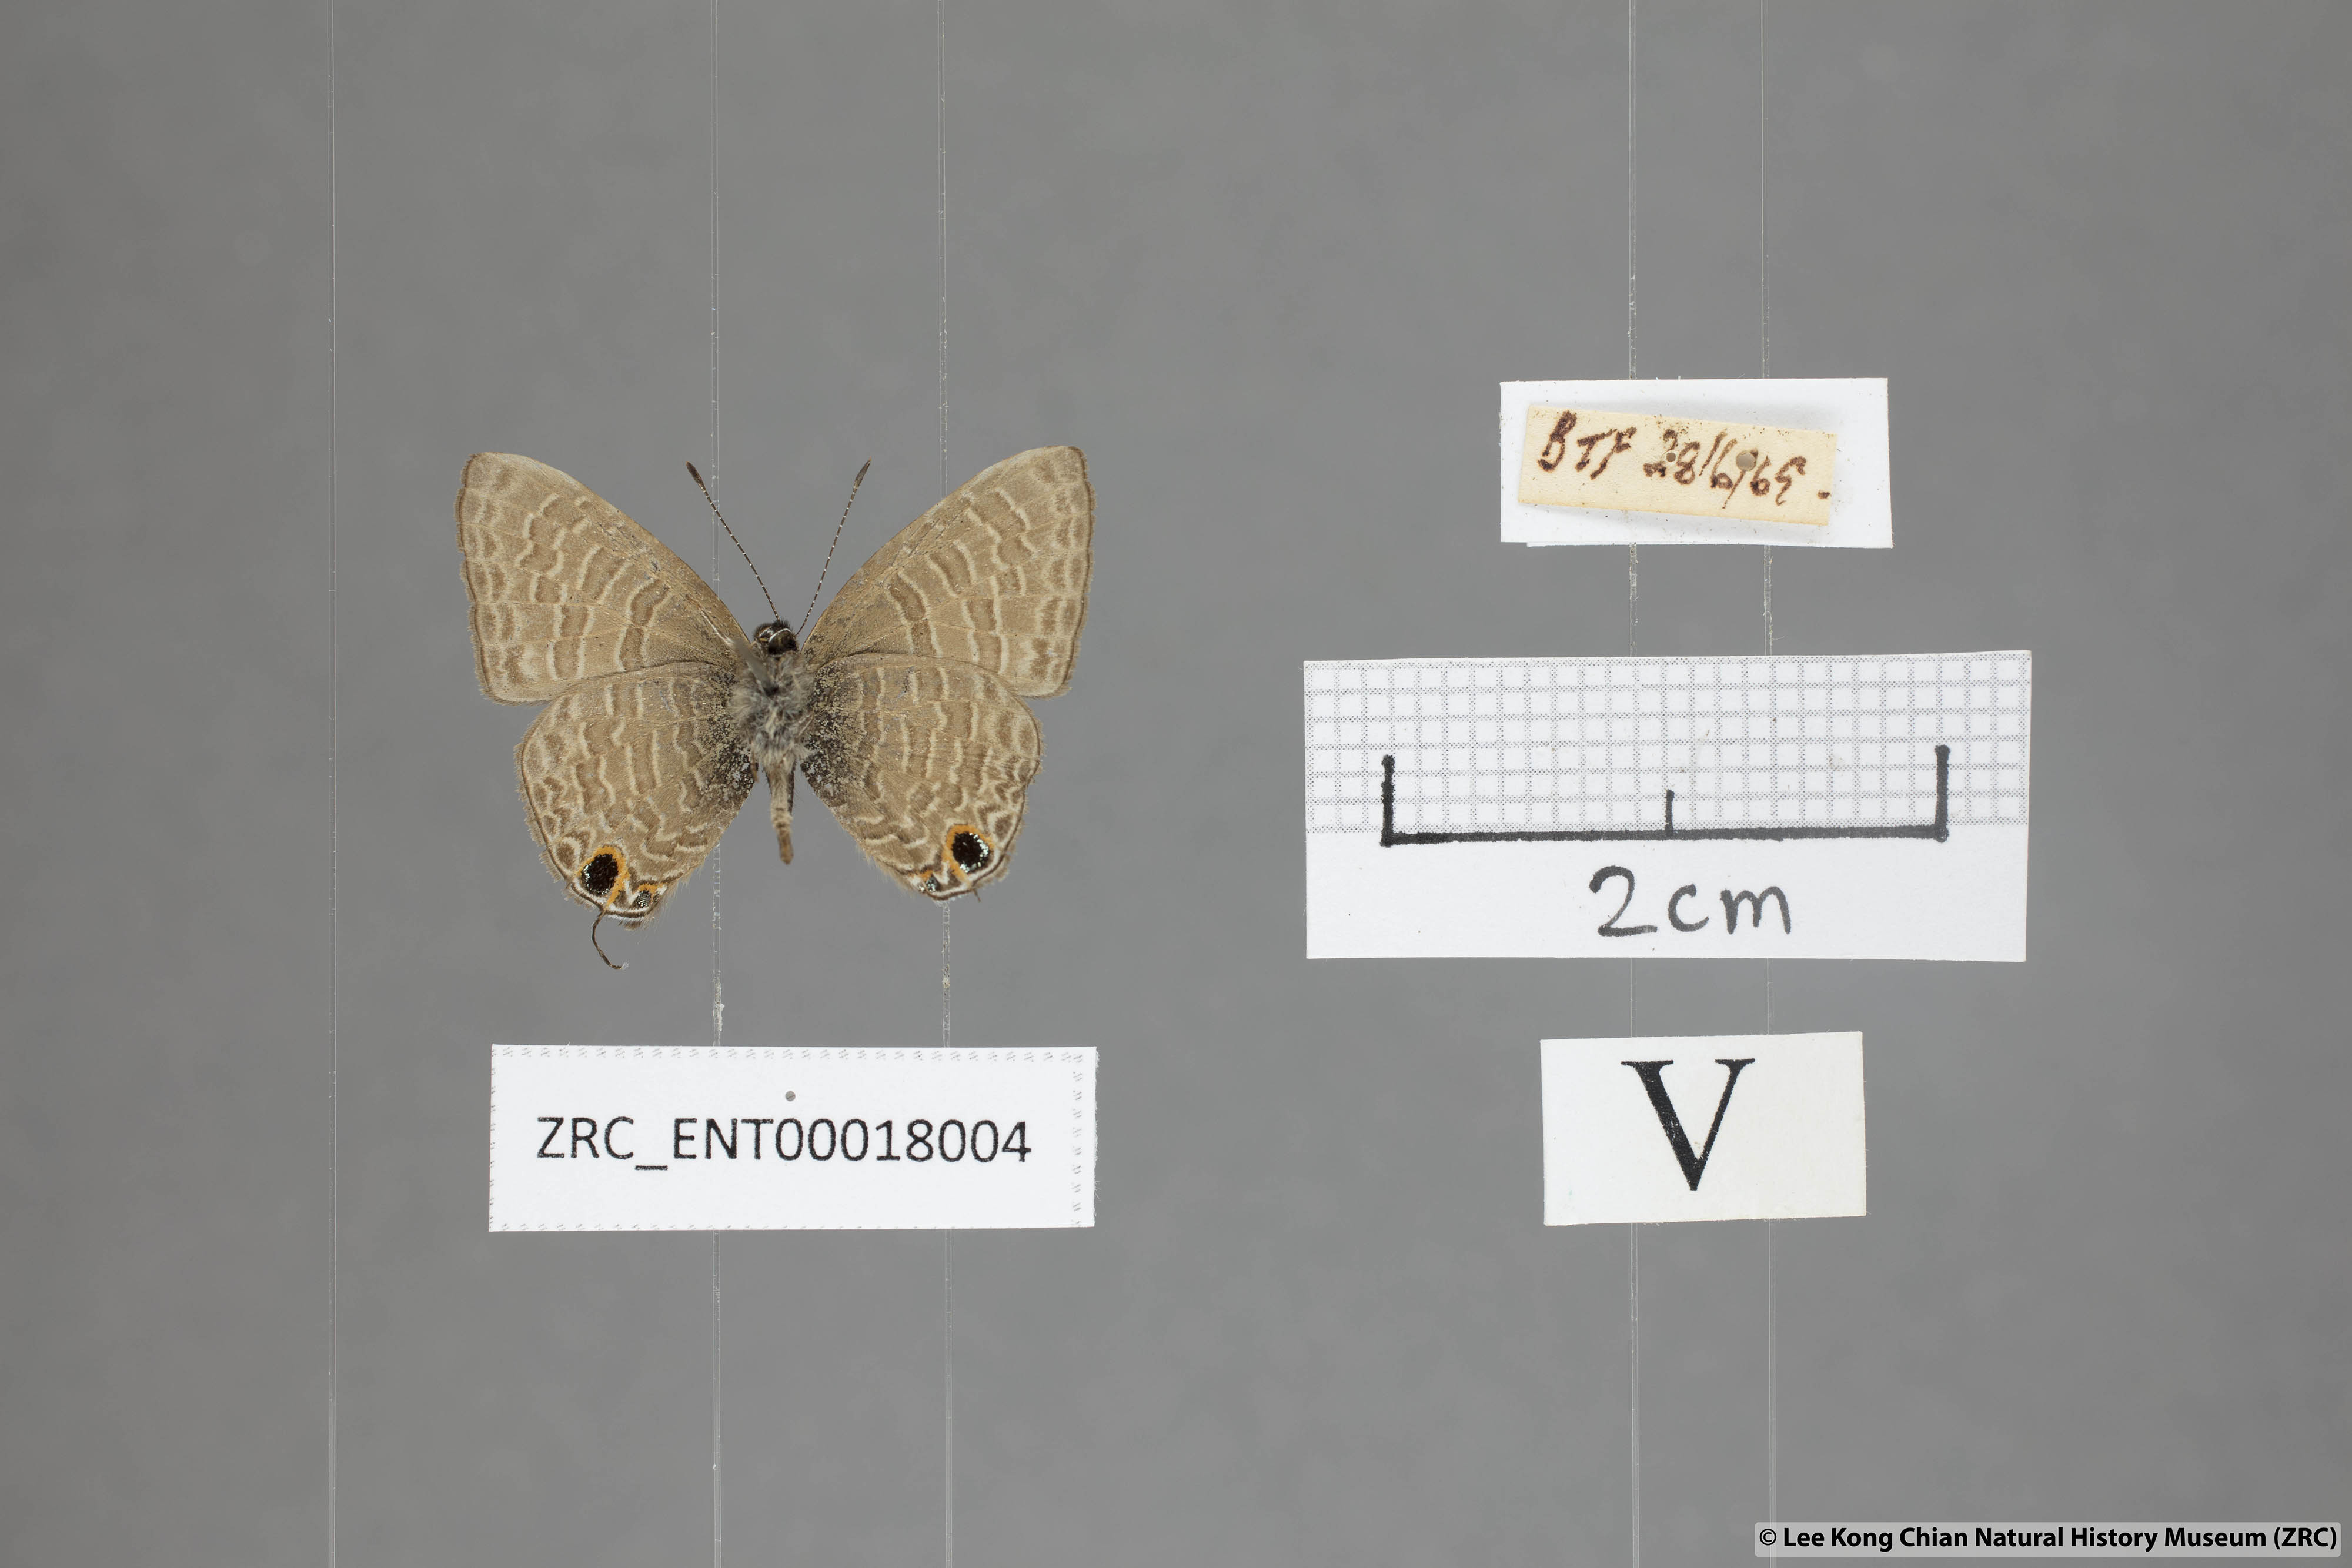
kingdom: Animalia
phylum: Arthropoda
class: Insecta
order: Lepidoptera
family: Lycaenidae
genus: Ionolyce
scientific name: Ionolyce helicon
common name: Pointed line blue
